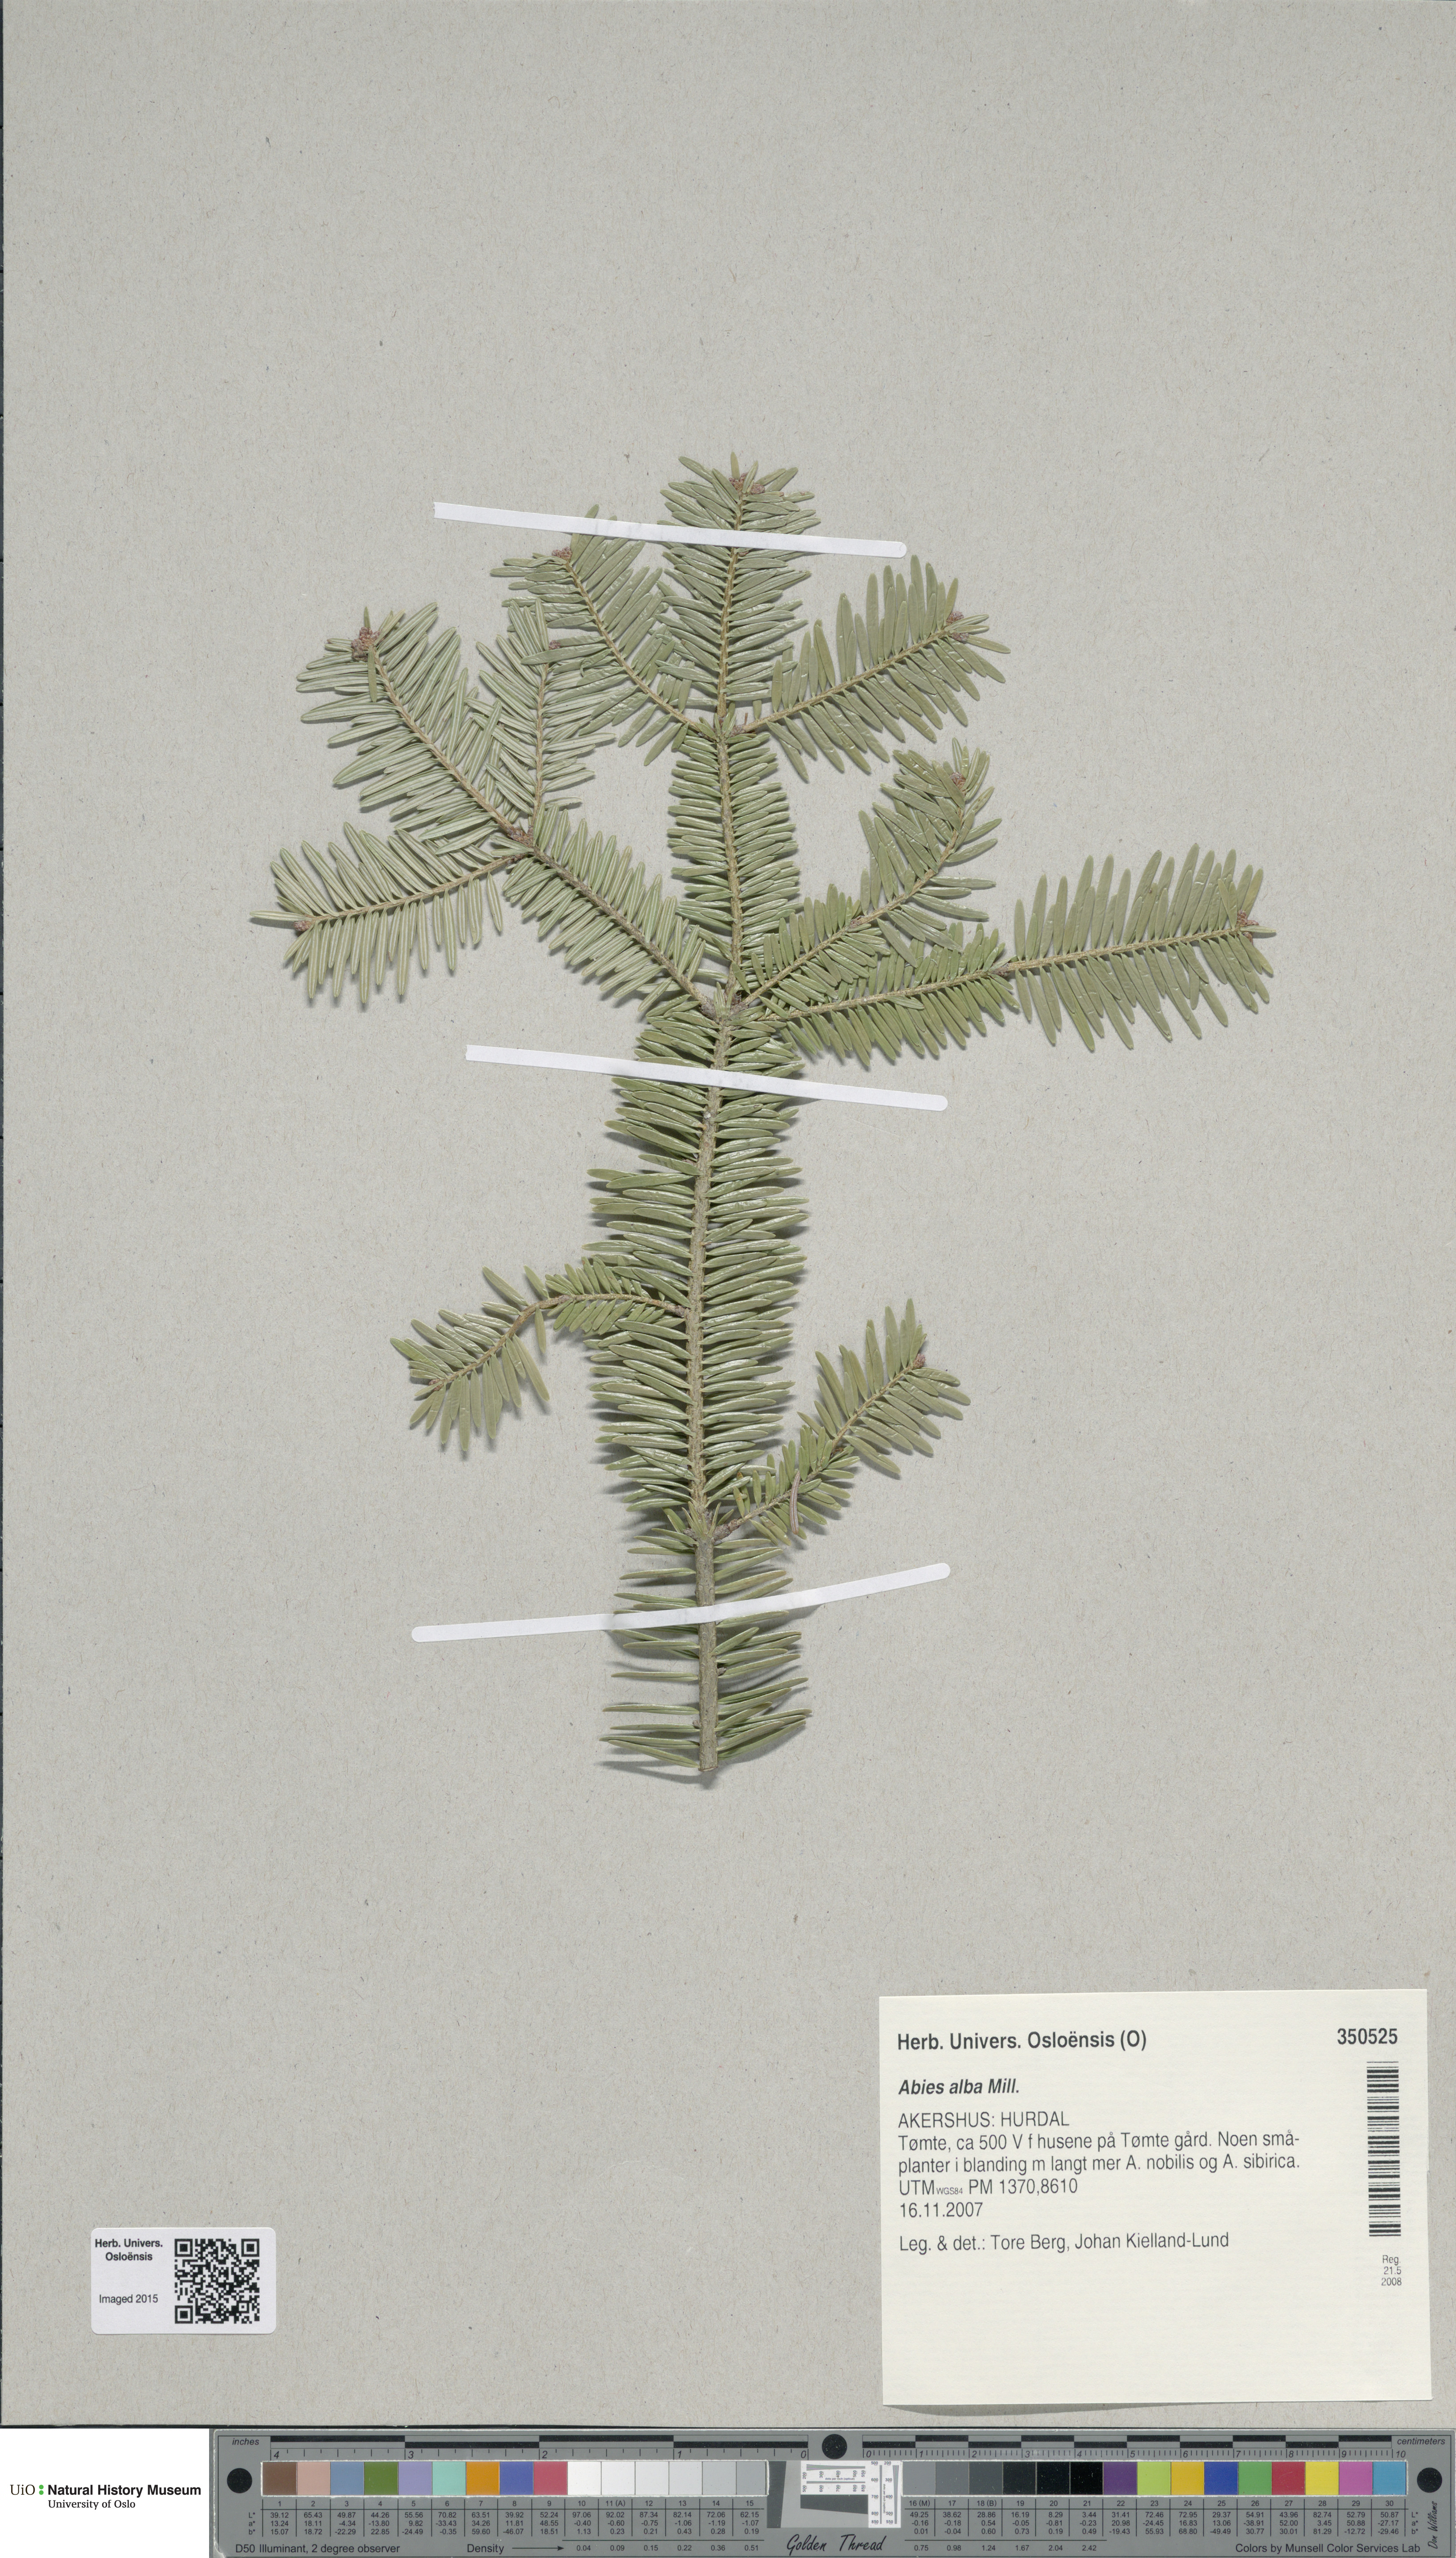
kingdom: Plantae
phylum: Tracheophyta
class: Pinopsida
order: Pinales
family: Pinaceae
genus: Abies
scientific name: Abies alba
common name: Silver fir
